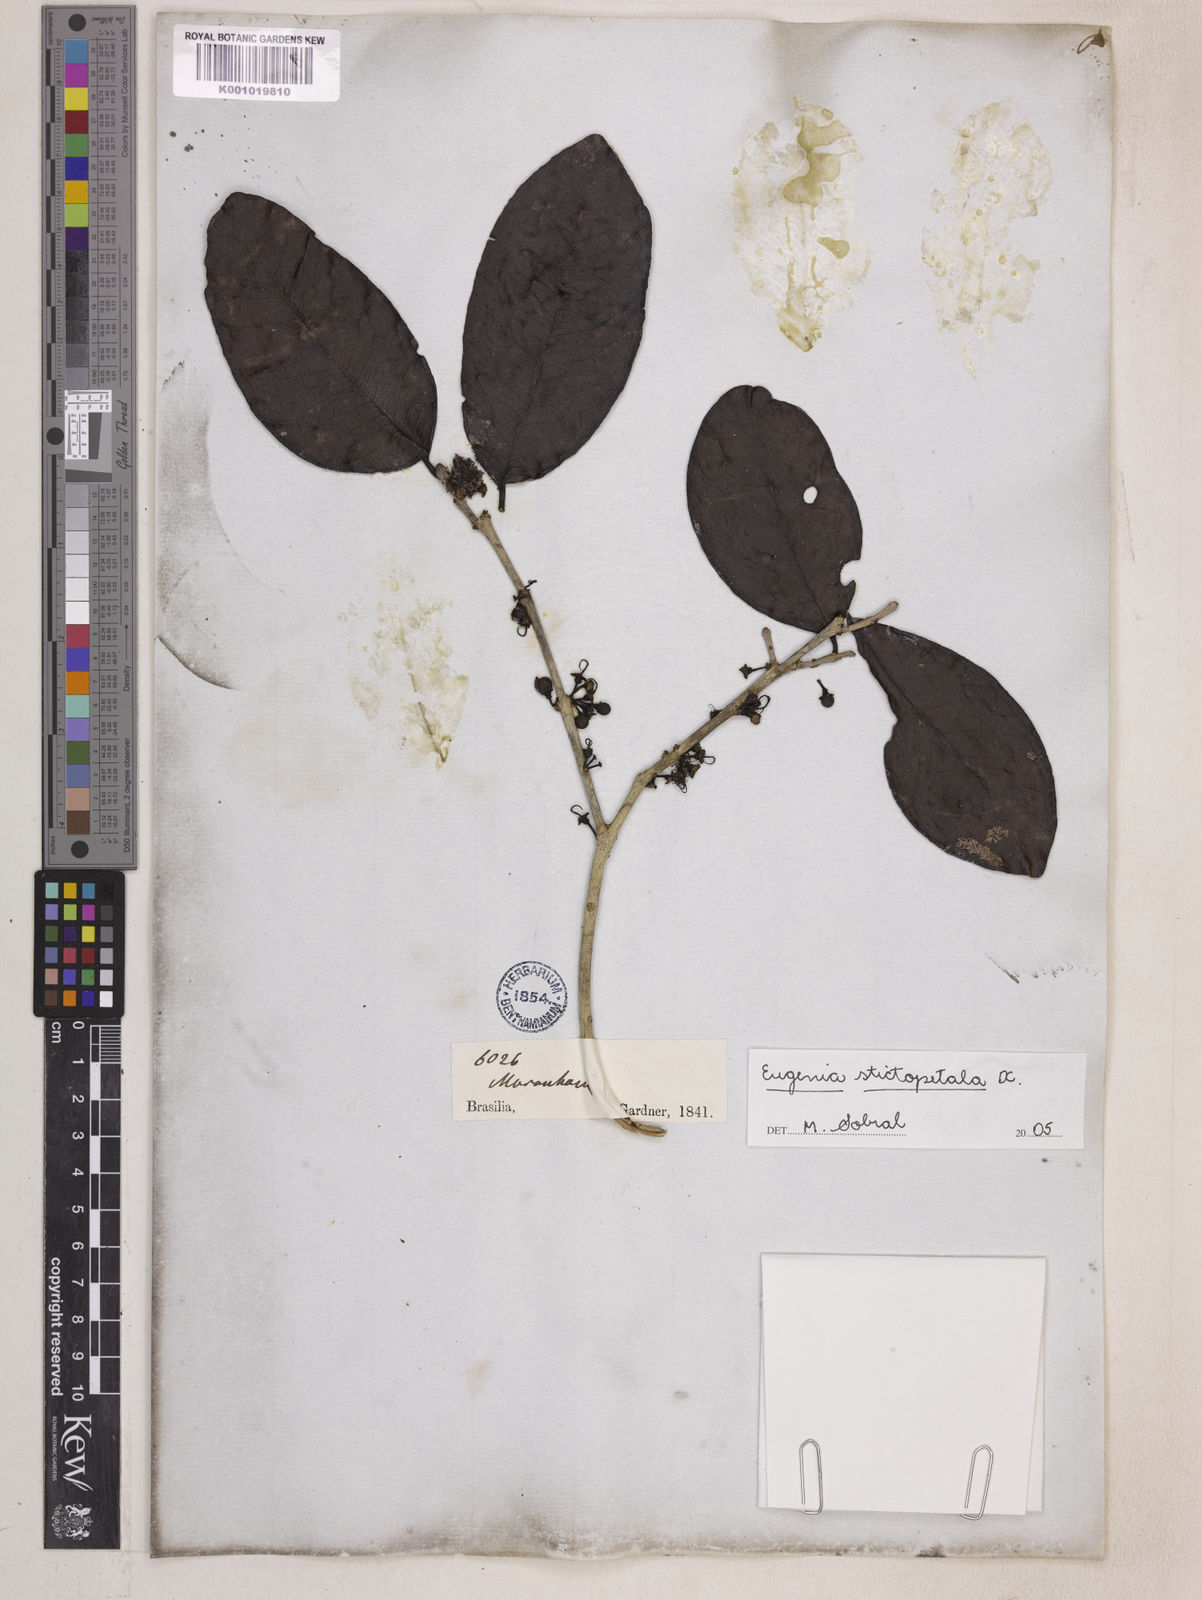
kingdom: Plantae
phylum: Tracheophyta
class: Magnoliopsida
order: Myrtales
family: Myrtaceae
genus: Eugenia
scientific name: Eugenia stictopetala
